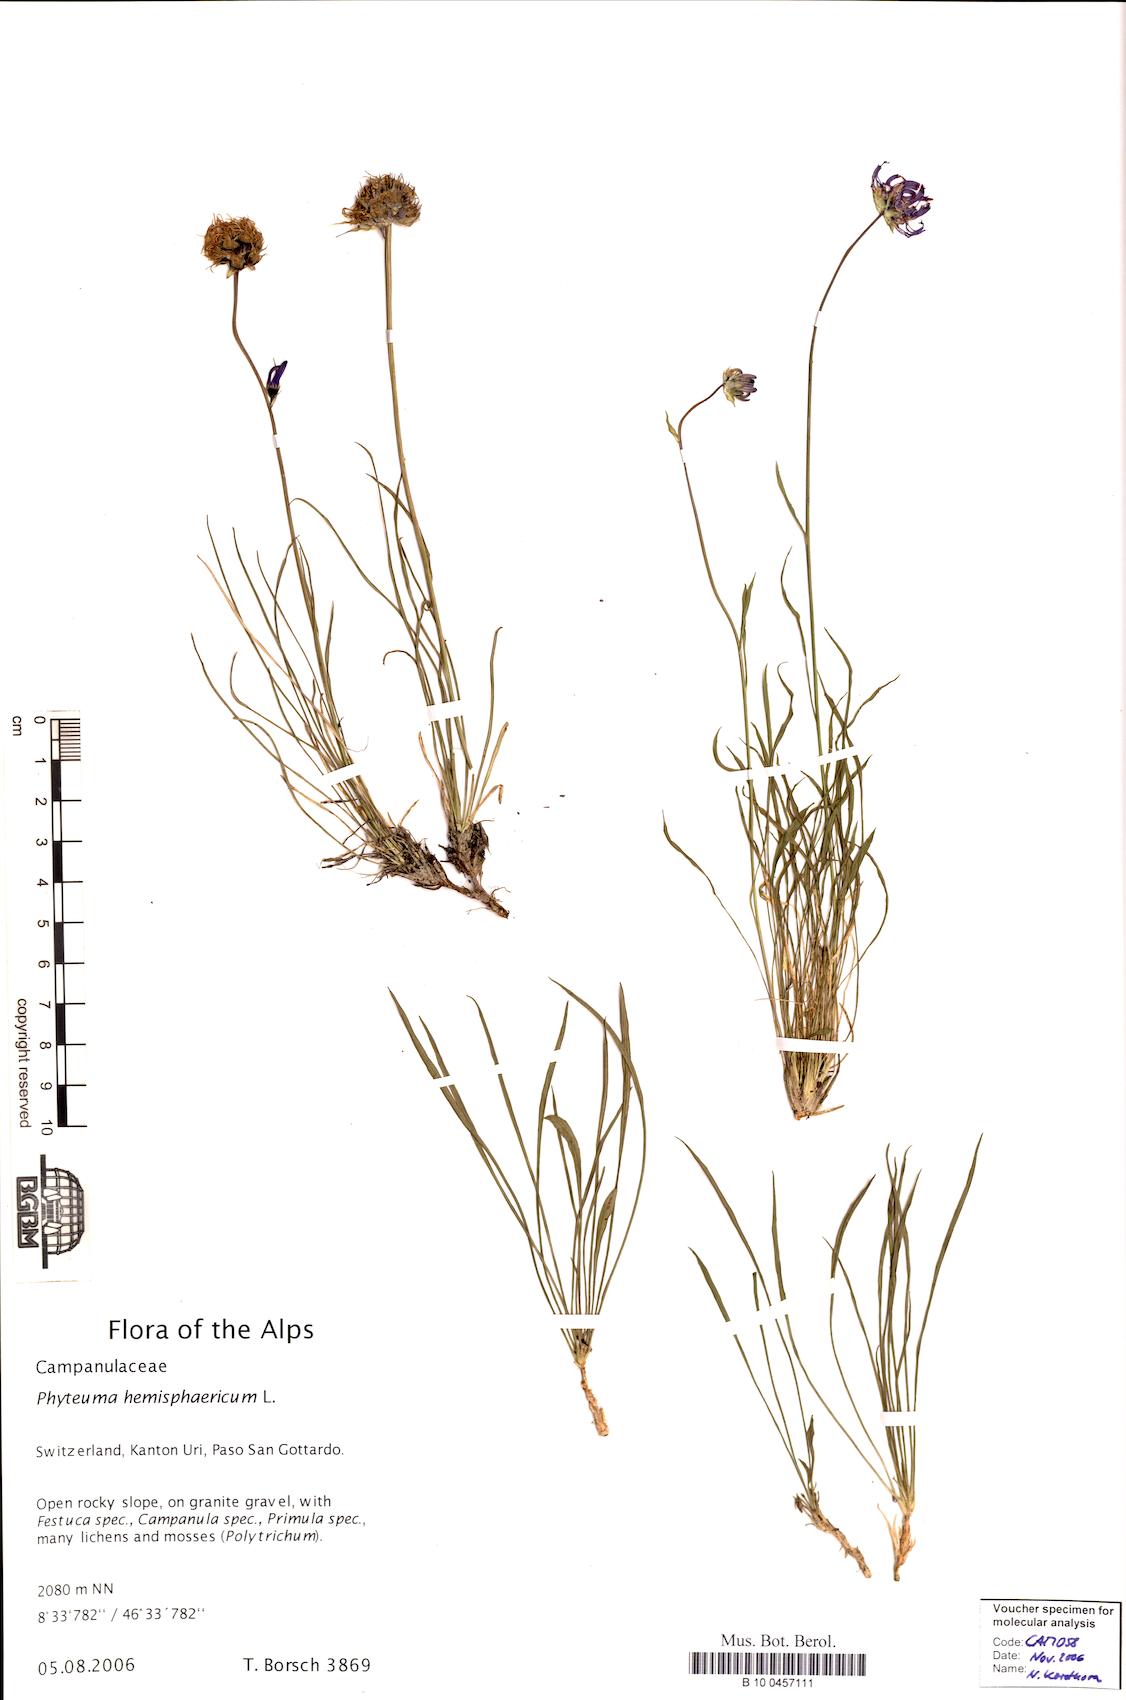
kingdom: Plantae
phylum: Tracheophyta
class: Magnoliopsida
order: Asterales
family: Campanulaceae
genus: Phyteuma
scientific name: Phyteuma hemisphaericum
